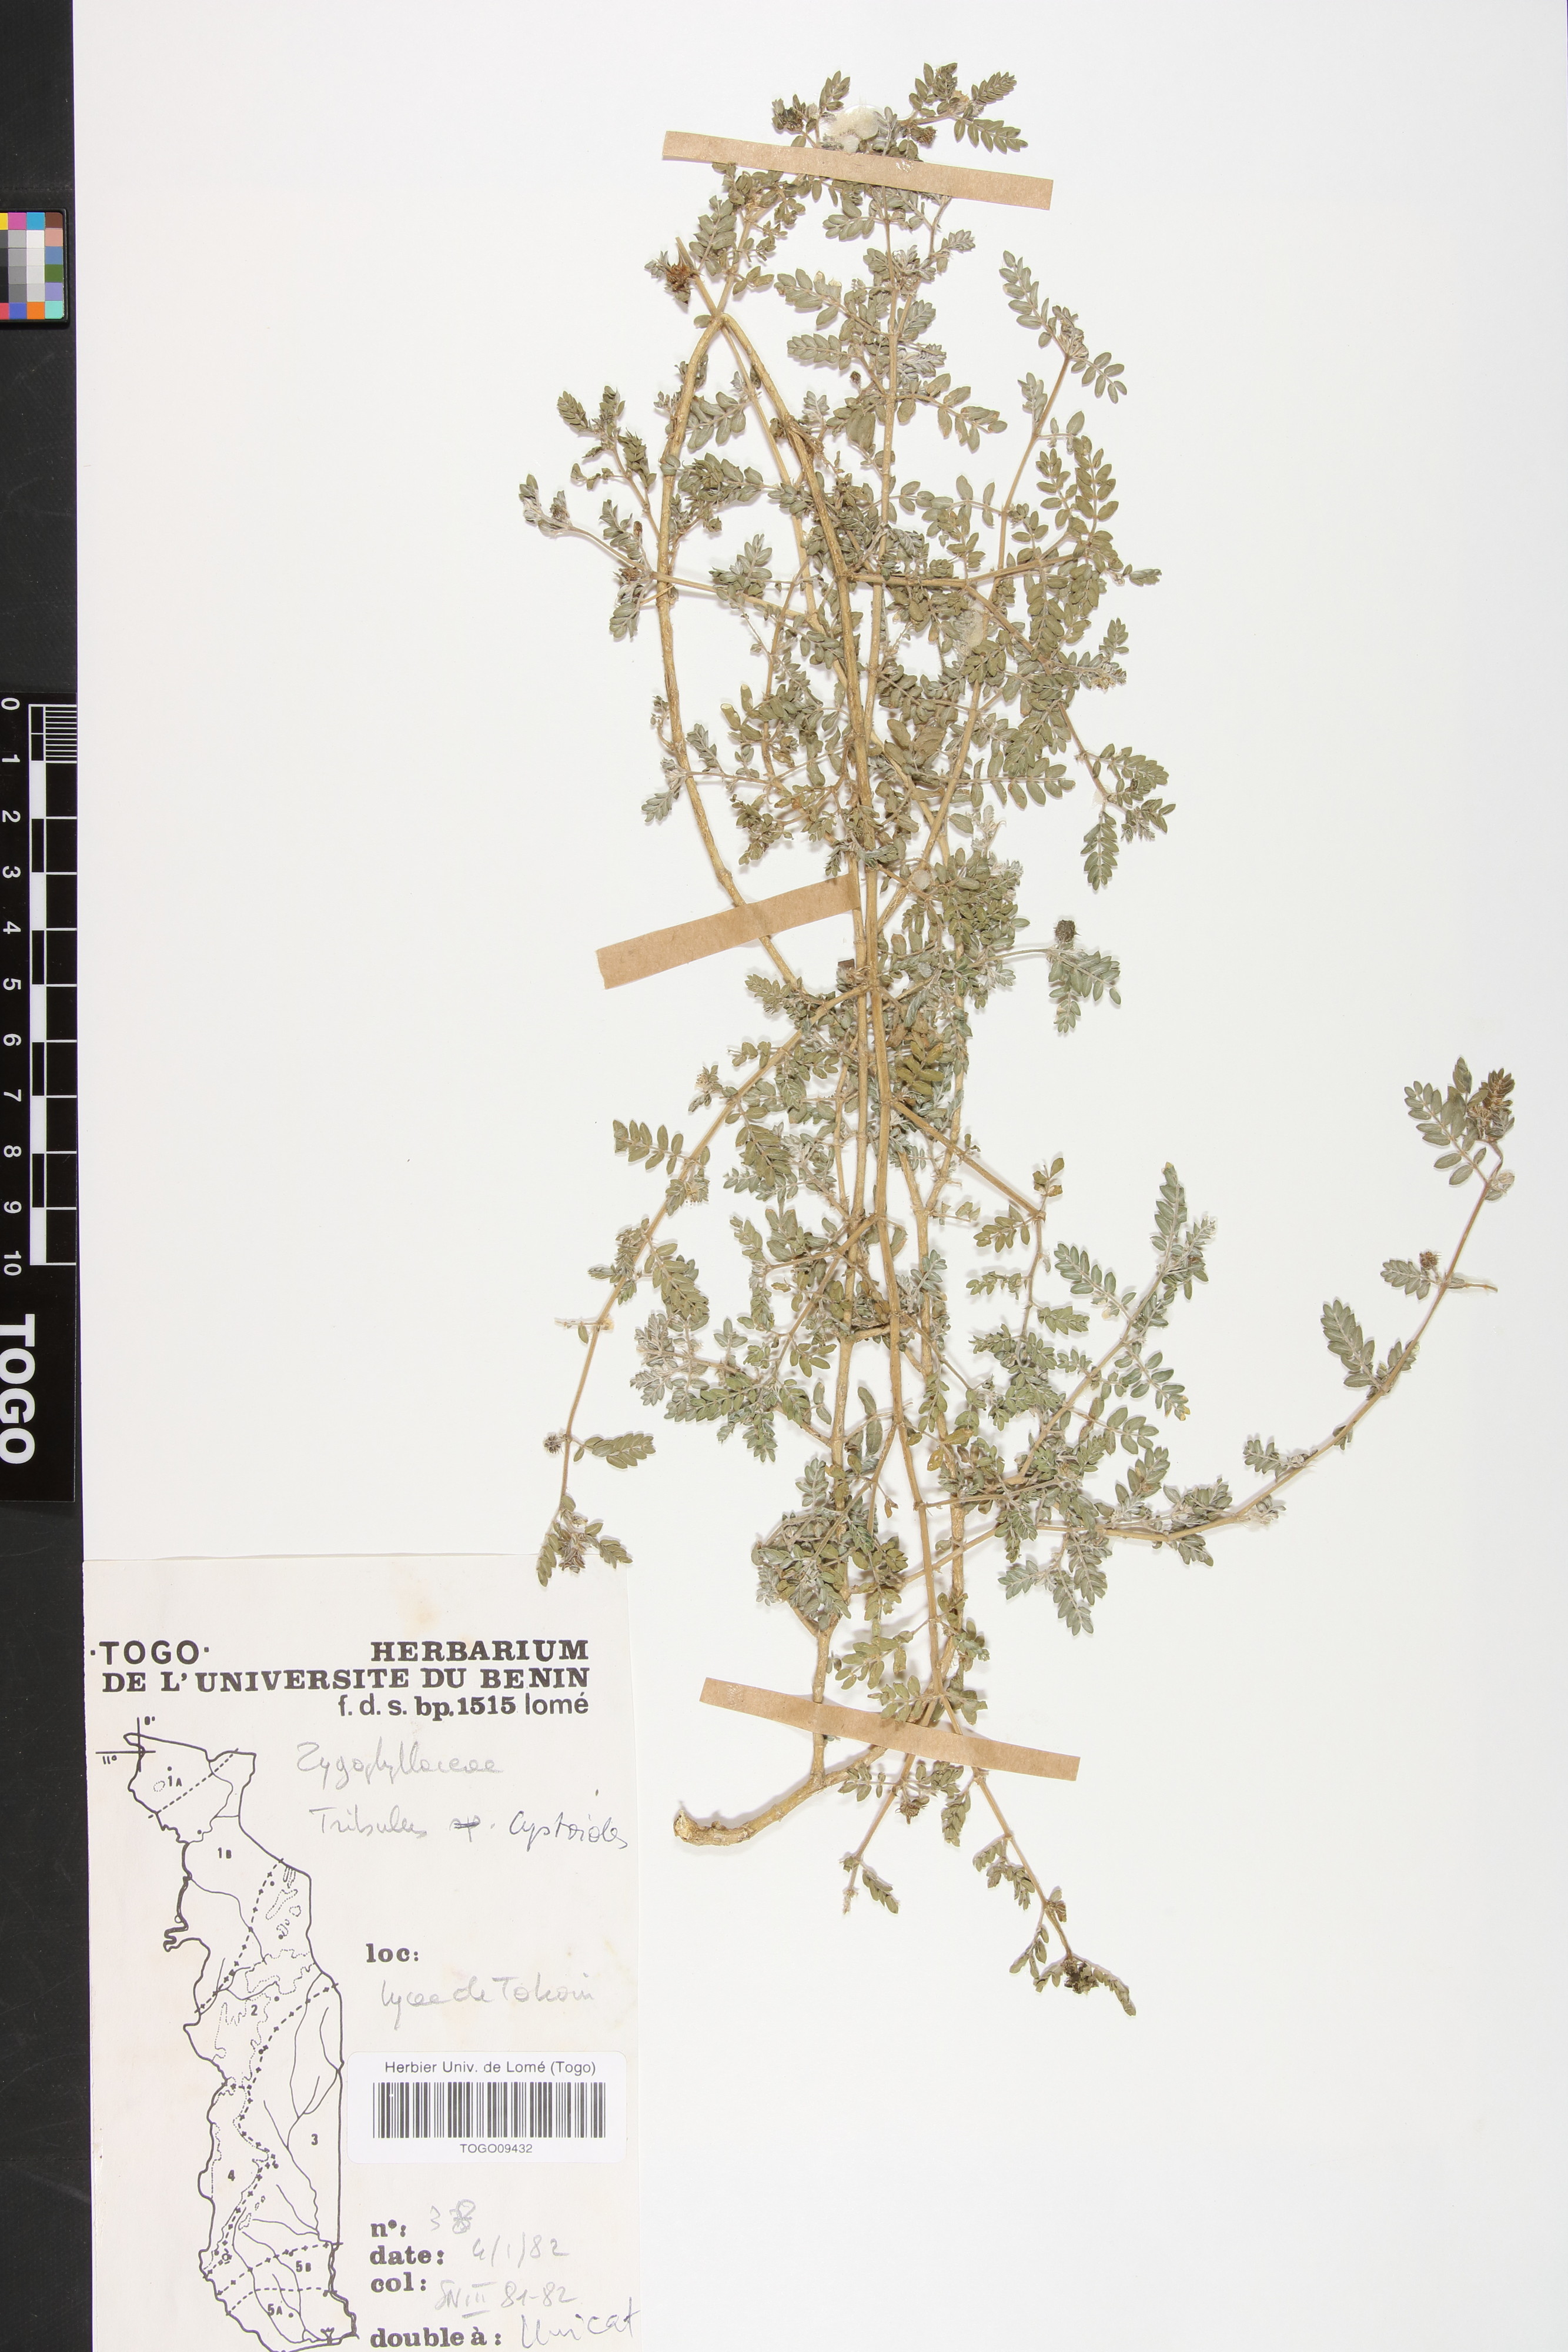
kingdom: Plantae
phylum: Tracheophyta
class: Magnoliopsida
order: Zygophyllales
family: Zygophyllaceae
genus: Tribulus
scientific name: Tribulus cistoides
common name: Jamaican feverplant
